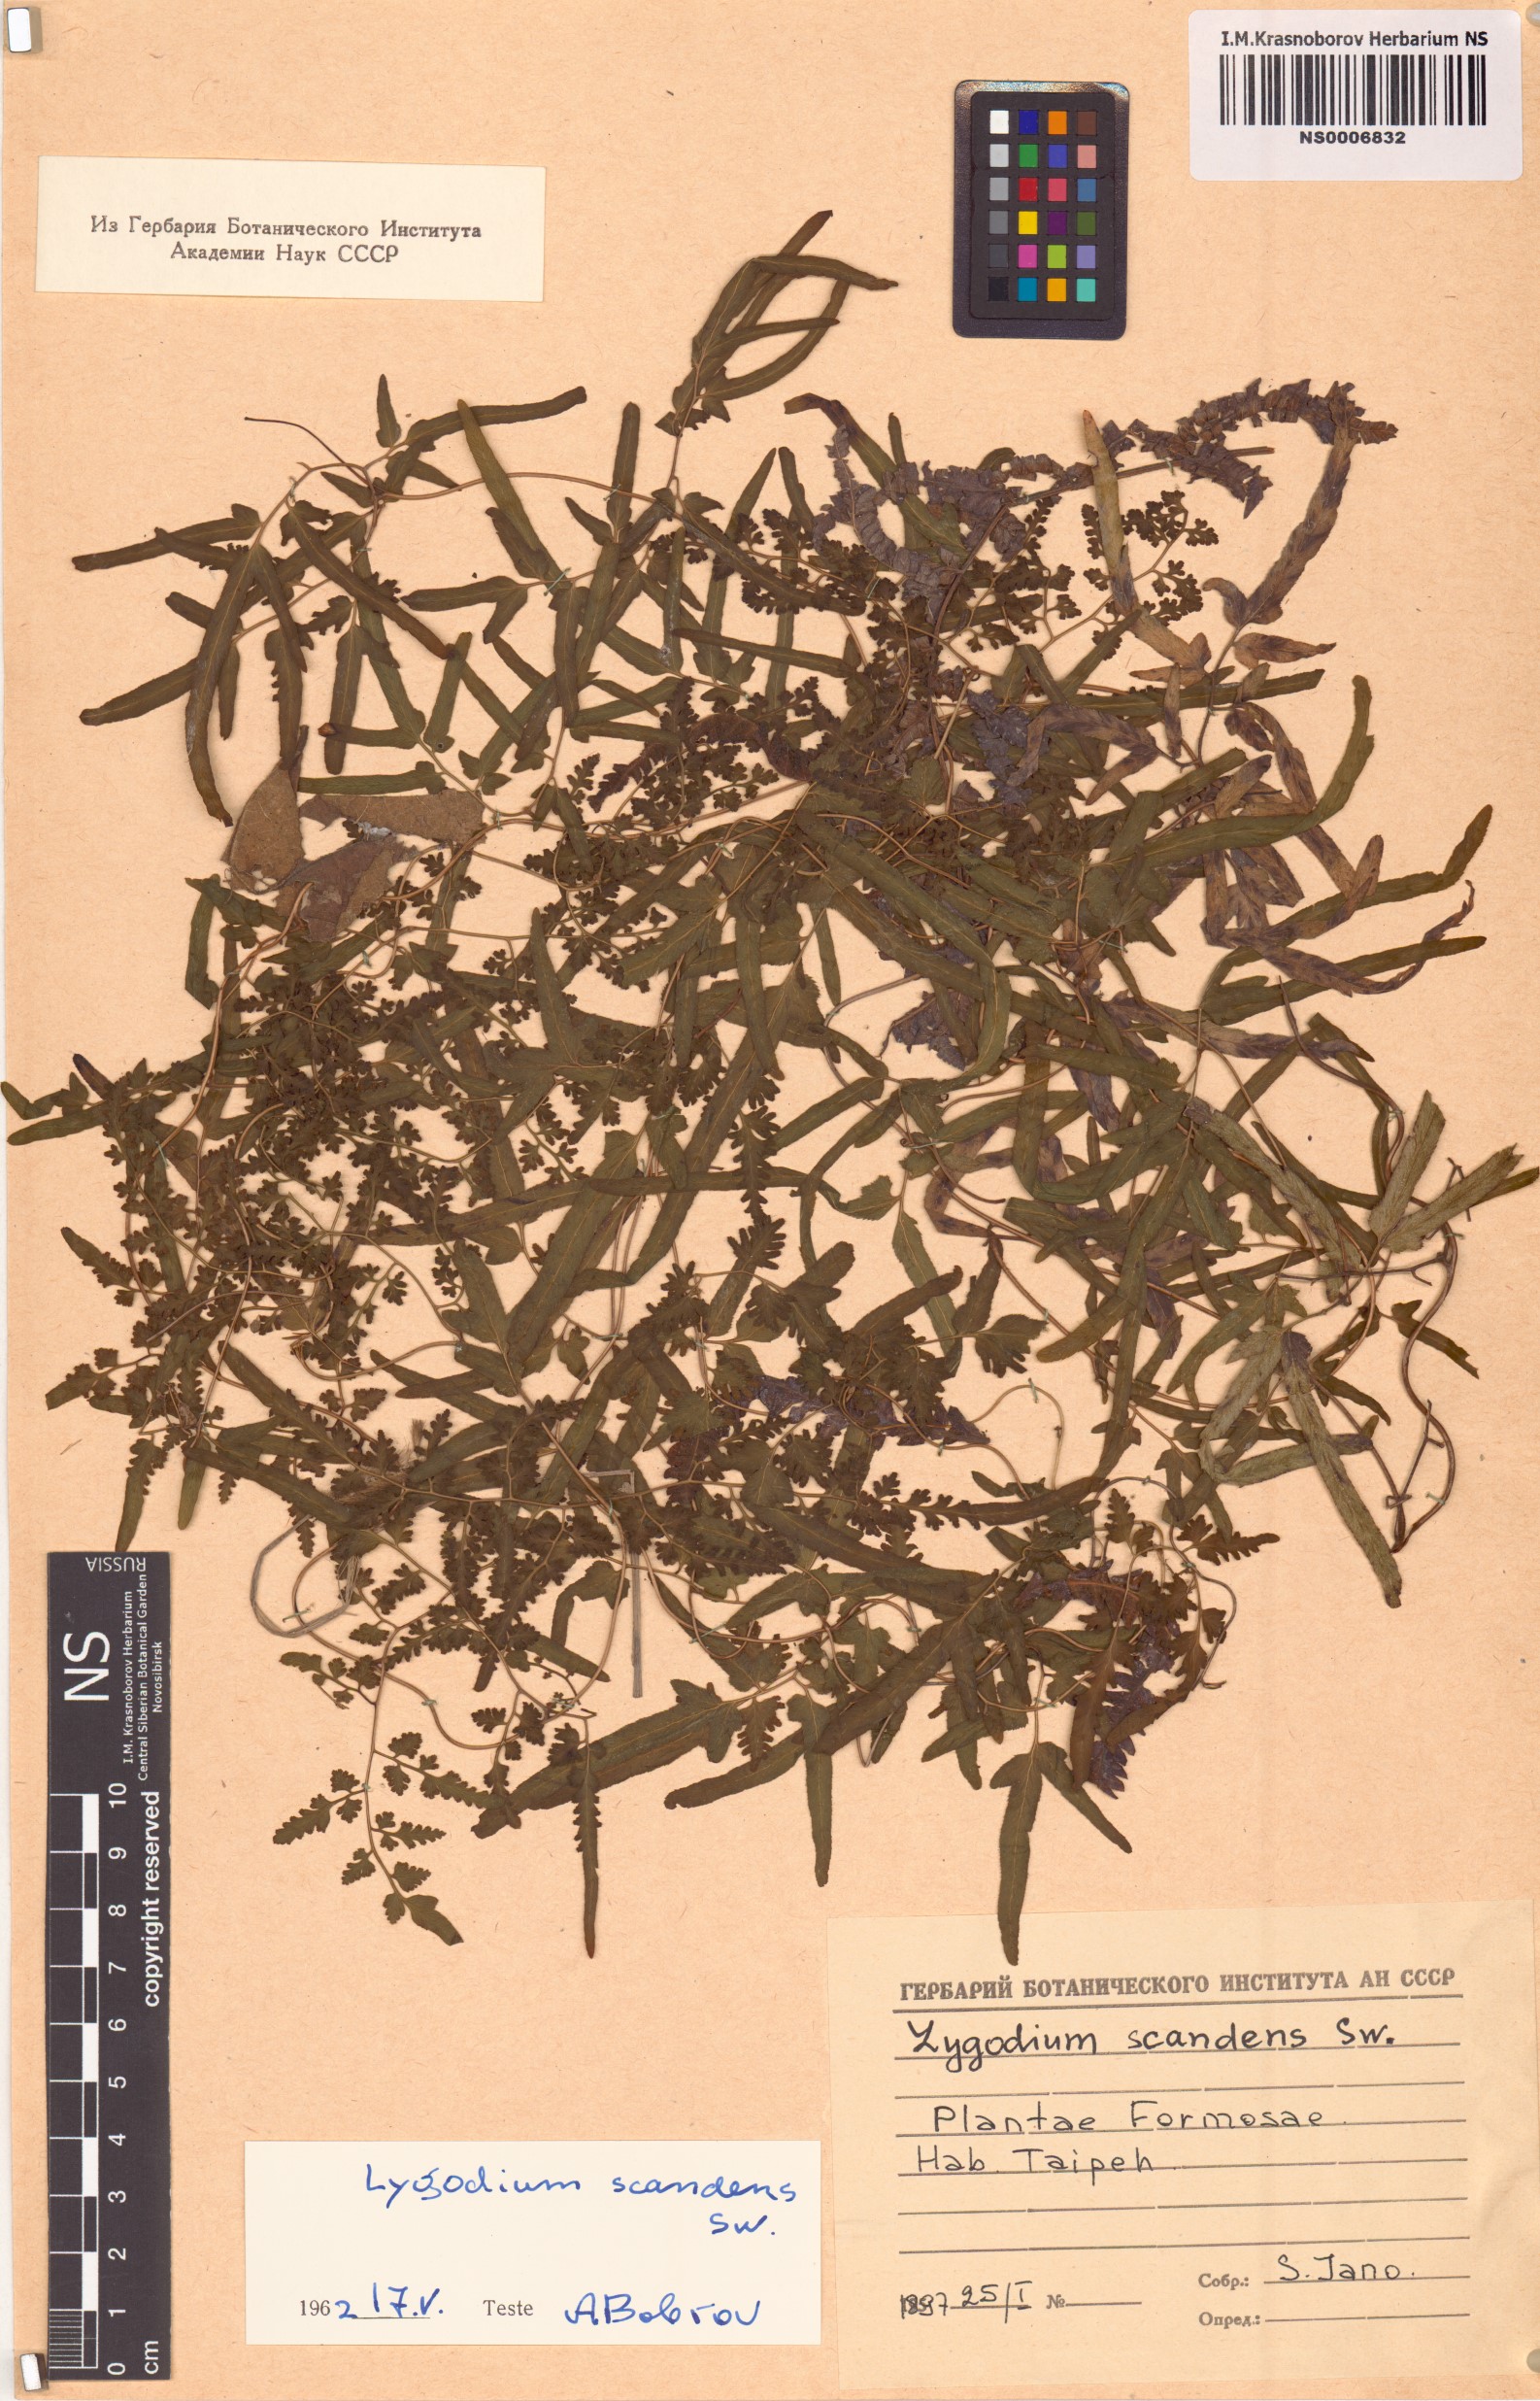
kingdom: Plantae
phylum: Tracheophyta
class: Polypodiopsida
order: Schizaeales
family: Lygodiaceae
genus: Lygodium
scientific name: Lygodium flexuosum
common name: Maidenhair creeper
